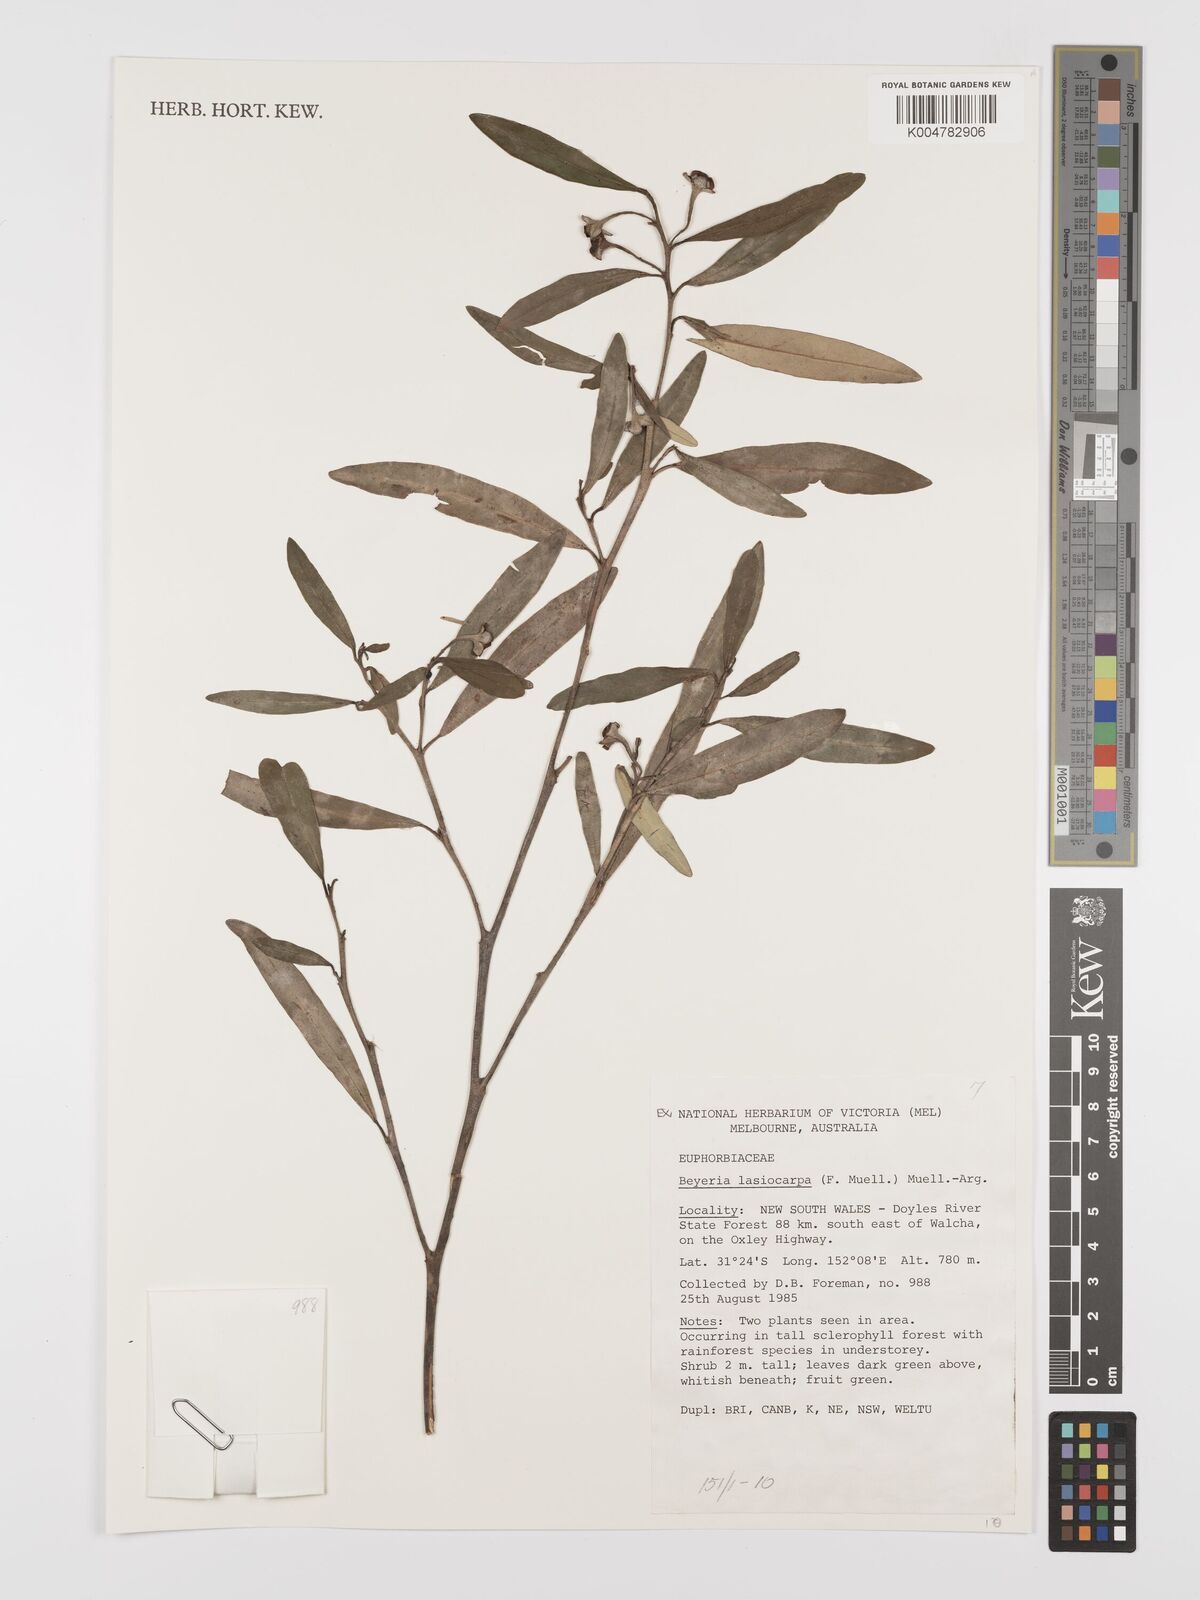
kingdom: Plantae
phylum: Tracheophyta
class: Magnoliopsida
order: Malpighiales
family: Euphorbiaceae
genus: Beyeria
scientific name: Beyeria lasiocarpa
